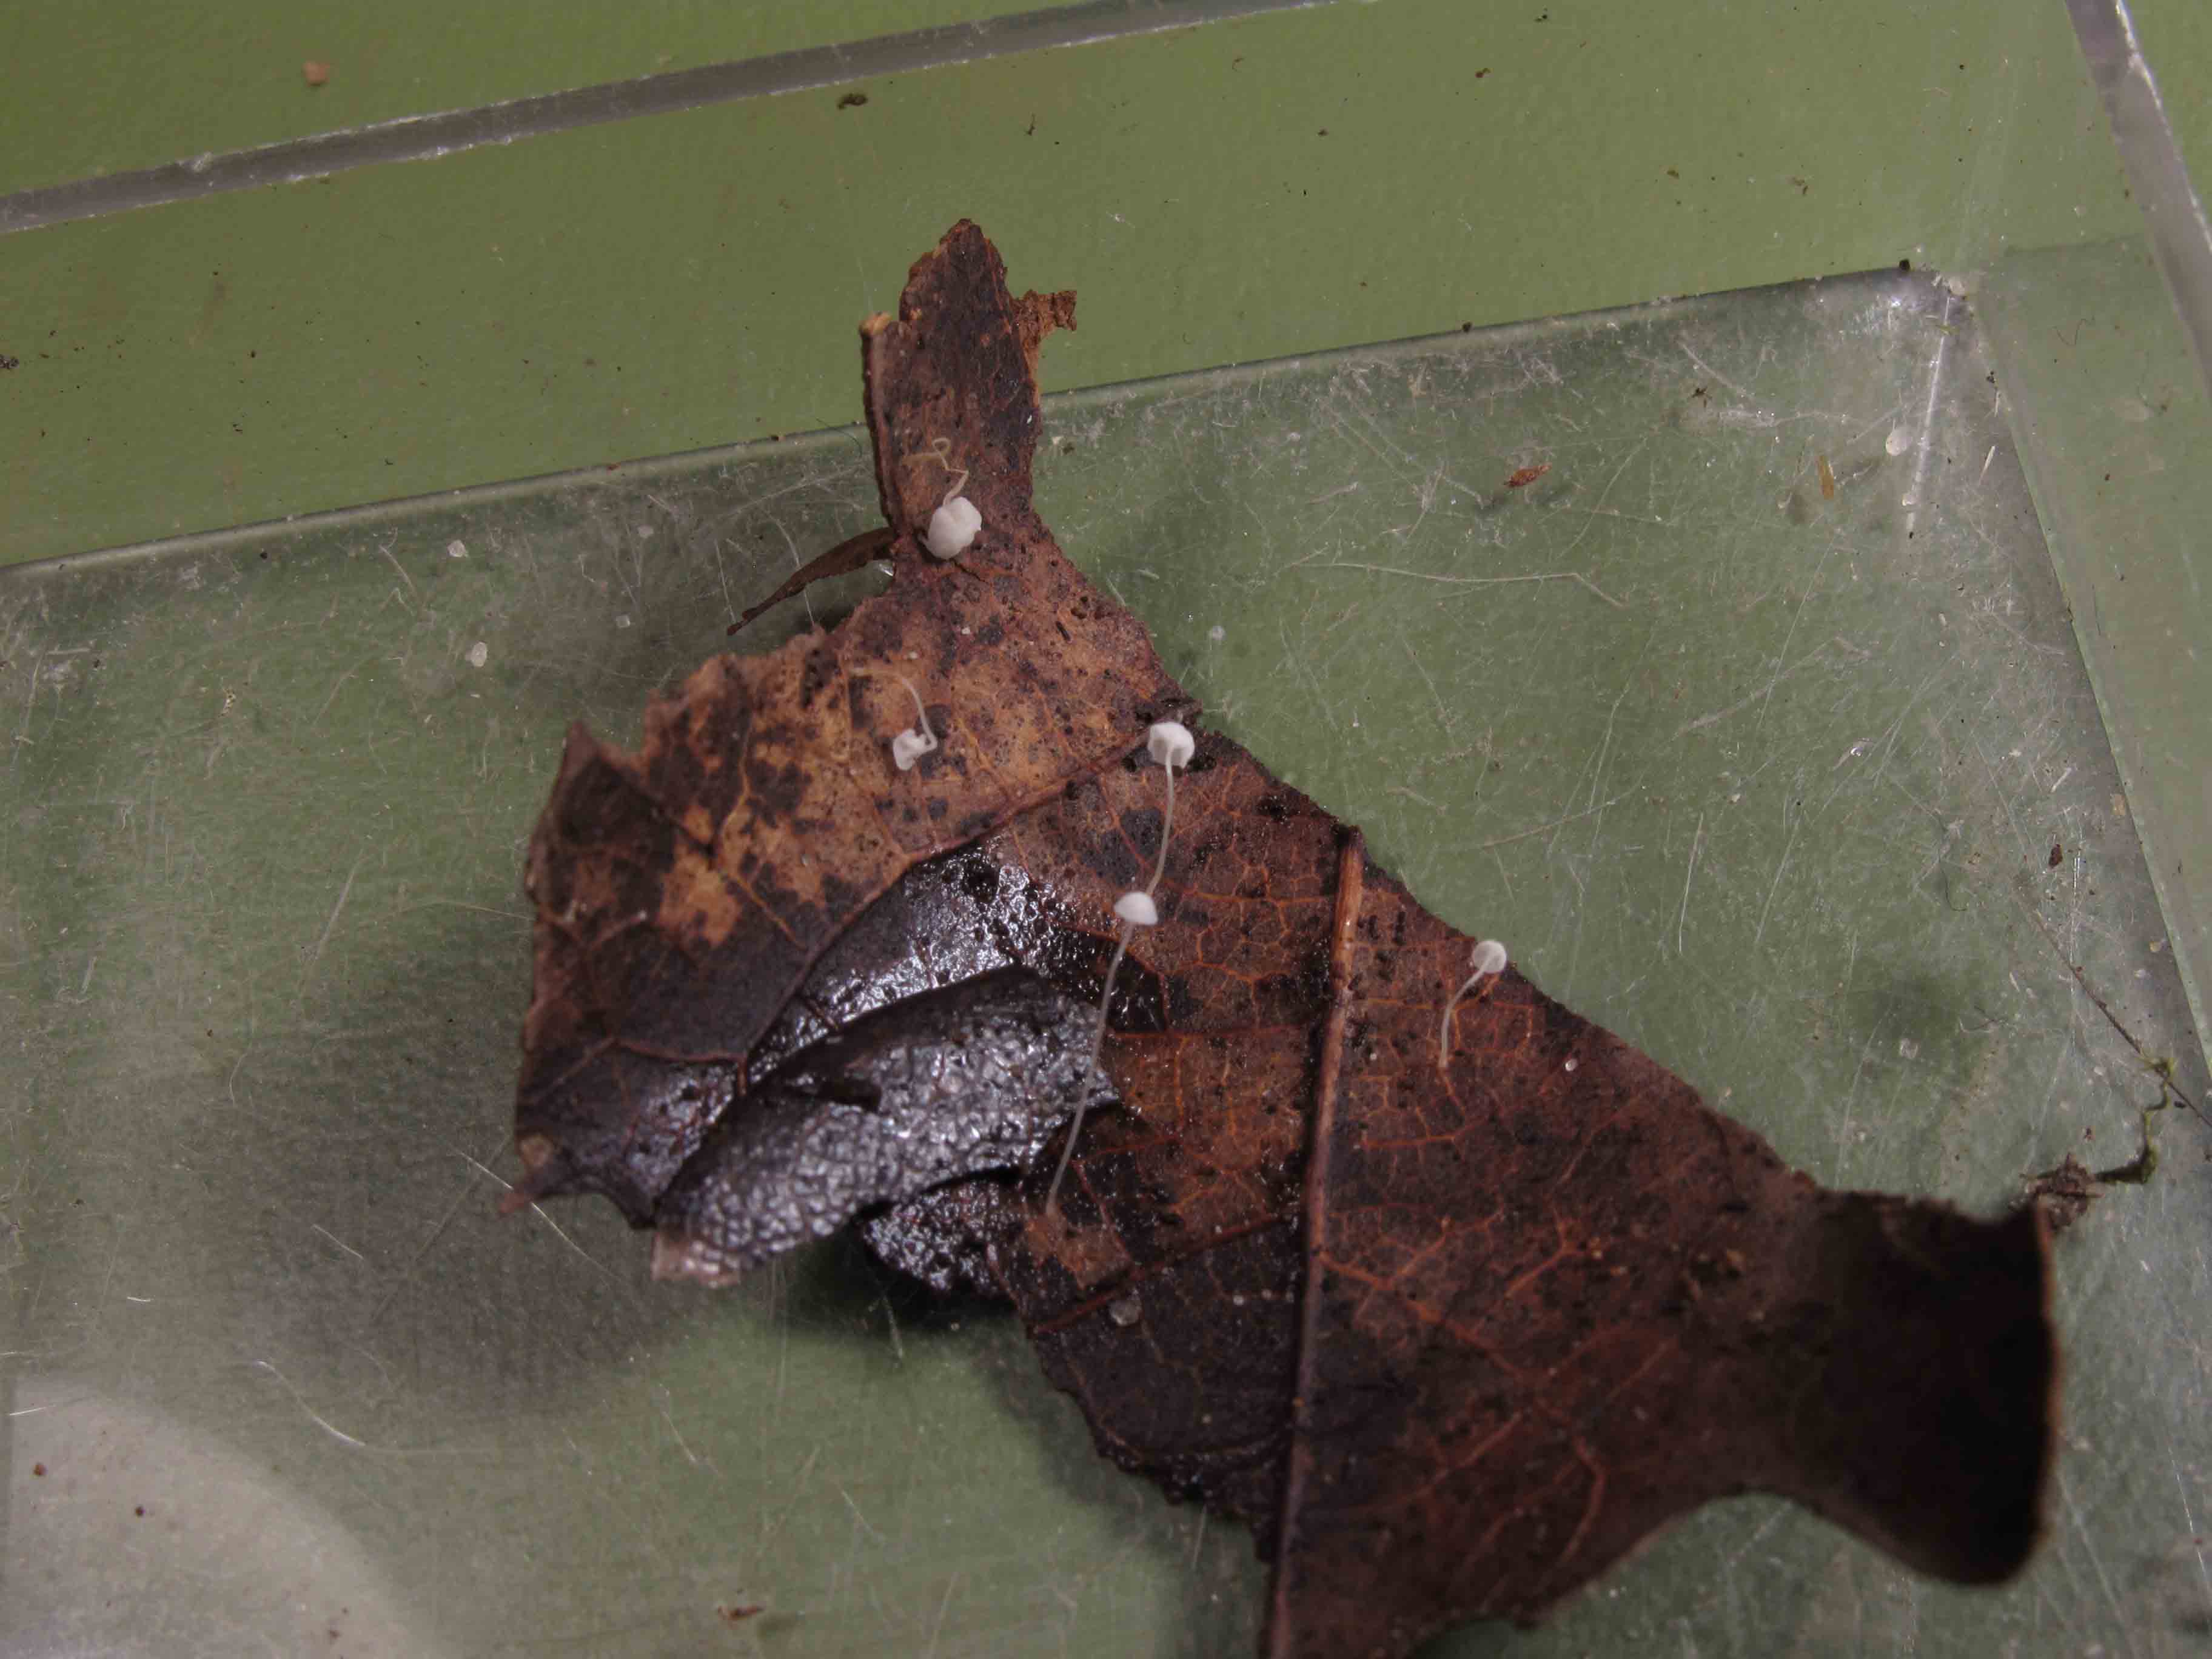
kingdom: Fungi
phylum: Basidiomycota
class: Agaricomycetes
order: Agaricales
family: Mycenaceae
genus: Mycena
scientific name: Mycena polyadelpha
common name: egeblads-huesvamp
